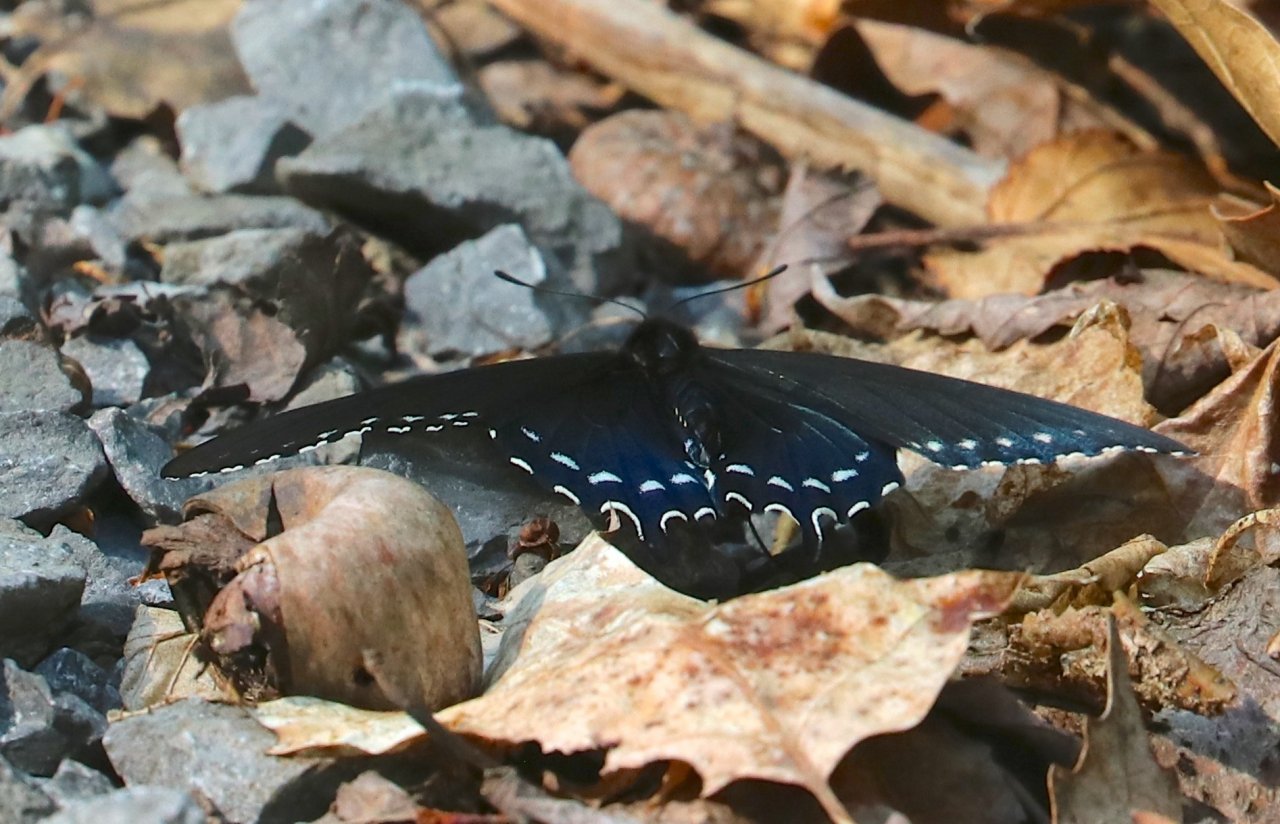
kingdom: Animalia
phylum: Arthropoda
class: Insecta
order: Lepidoptera
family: Papilionidae
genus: Battus
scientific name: Battus philenor
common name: Pipevine Swallowtail
